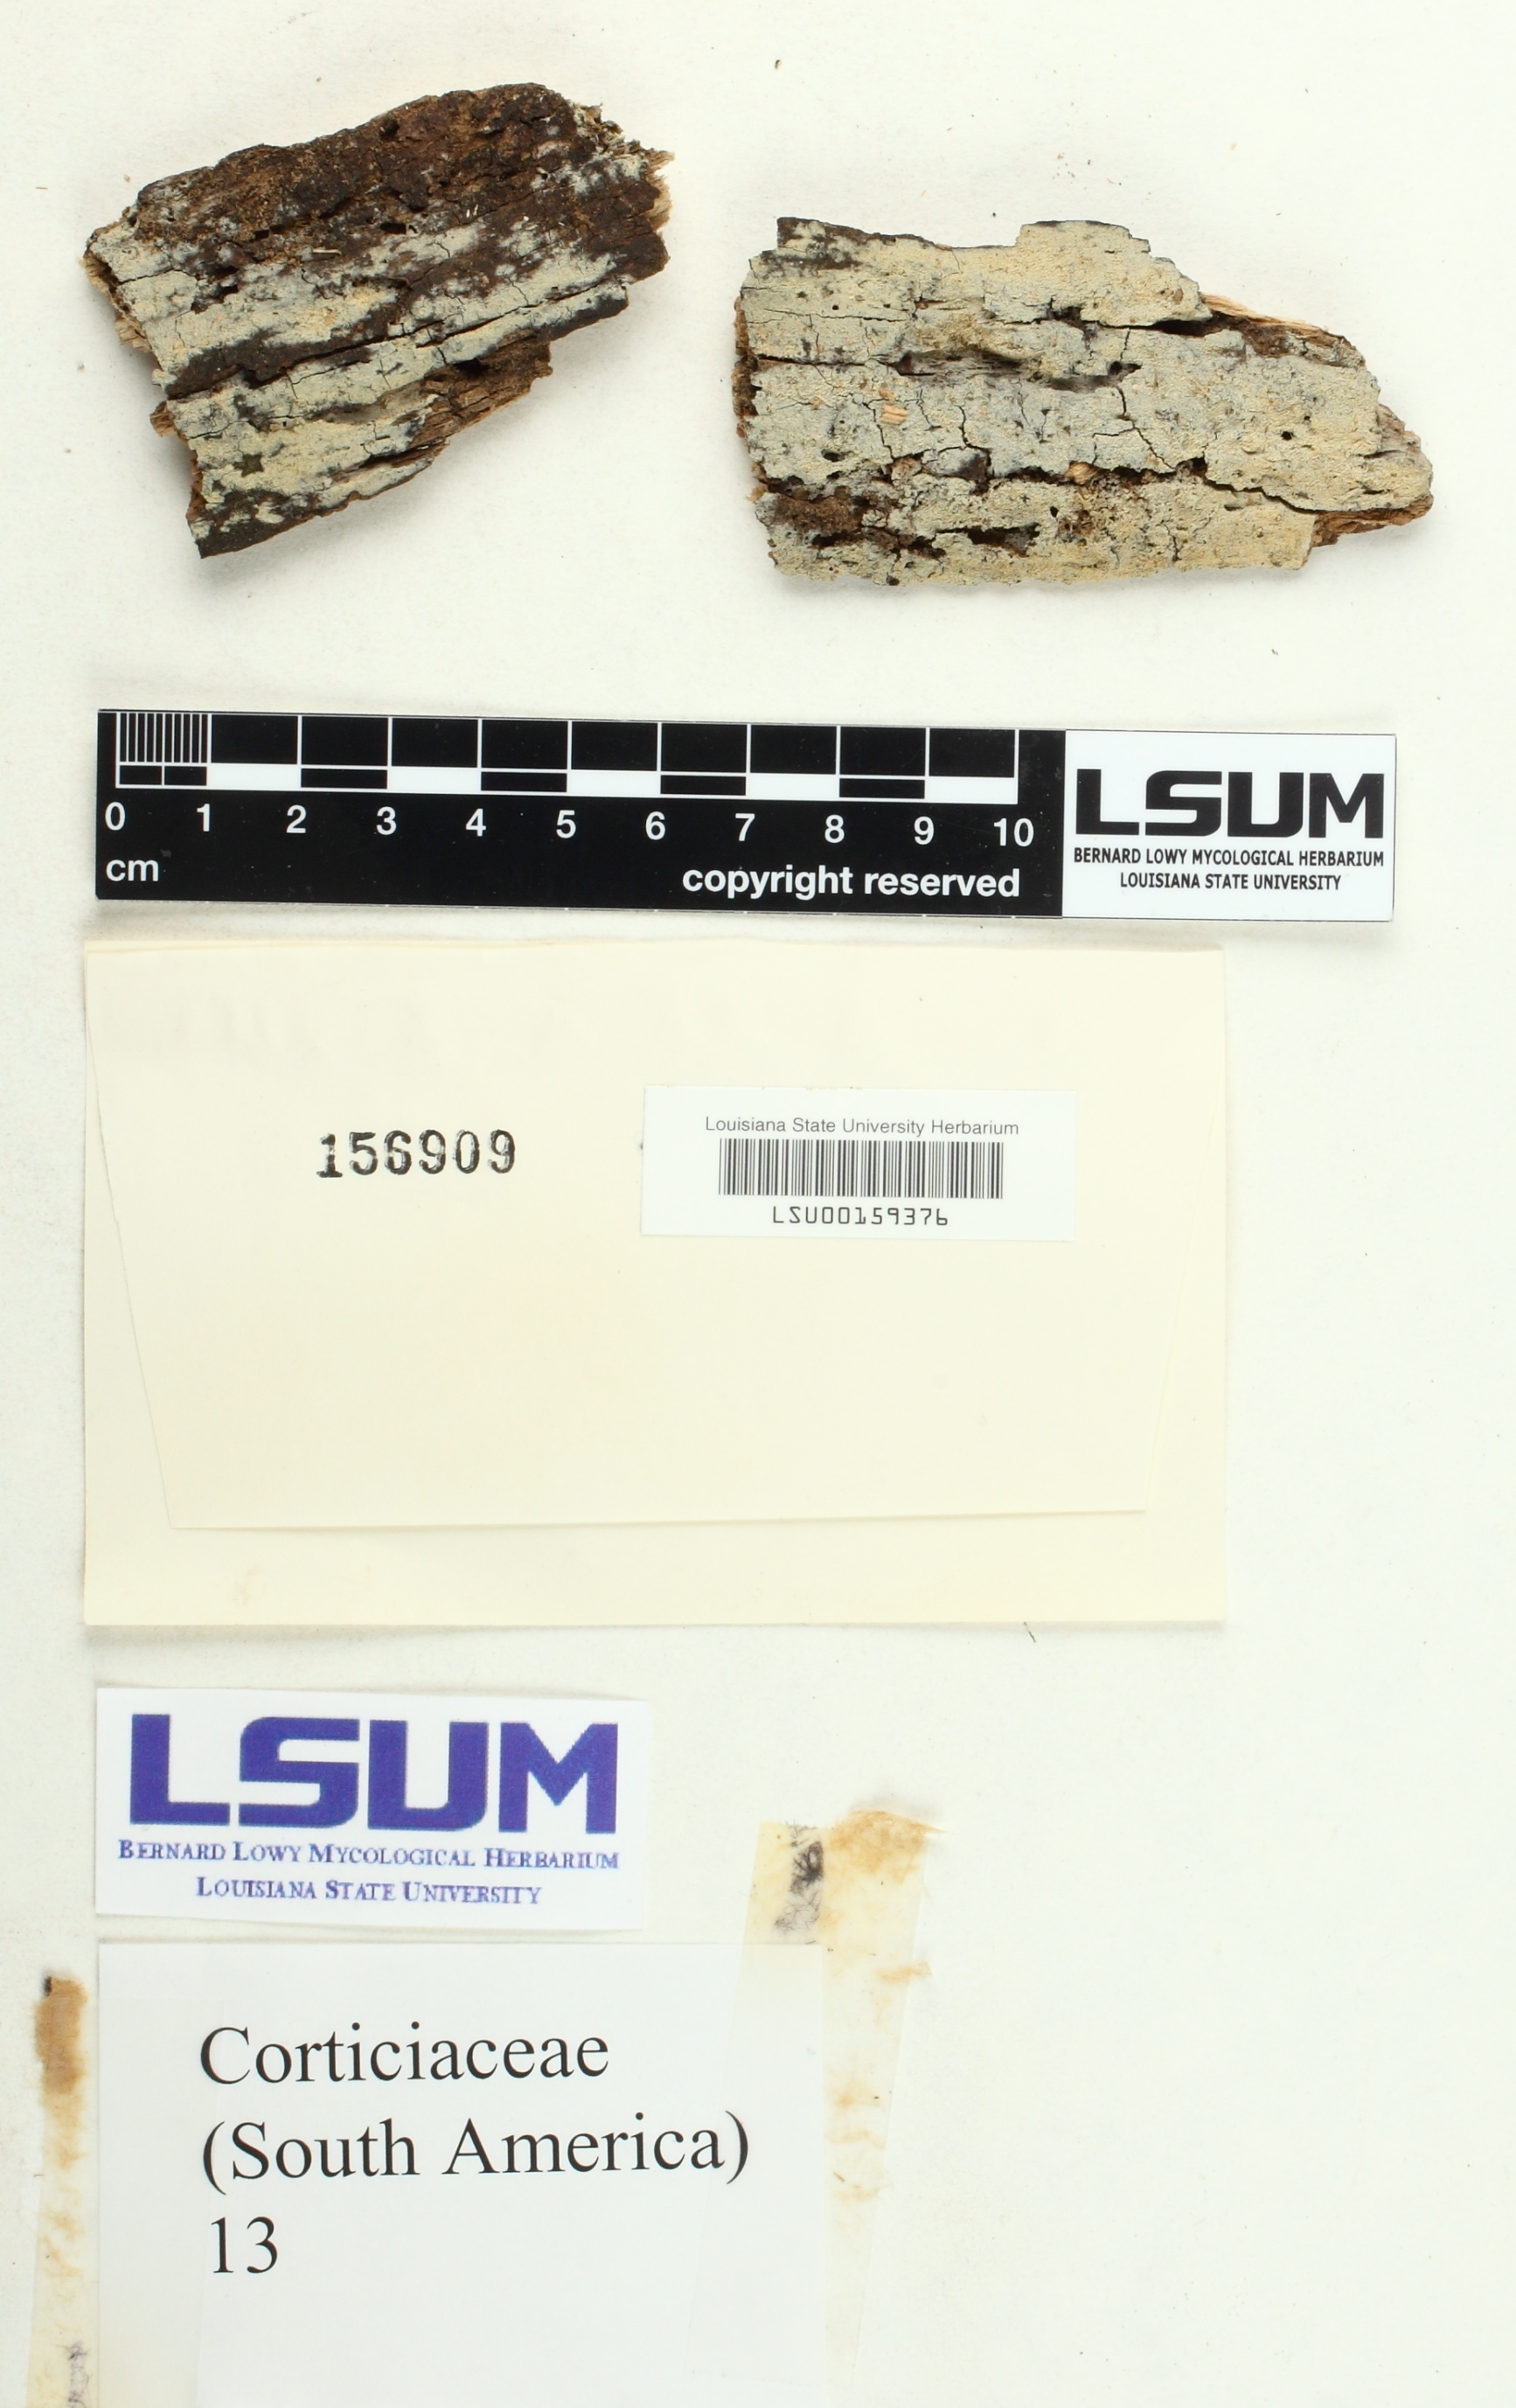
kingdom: Fungi
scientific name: Fungi
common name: Fungi
